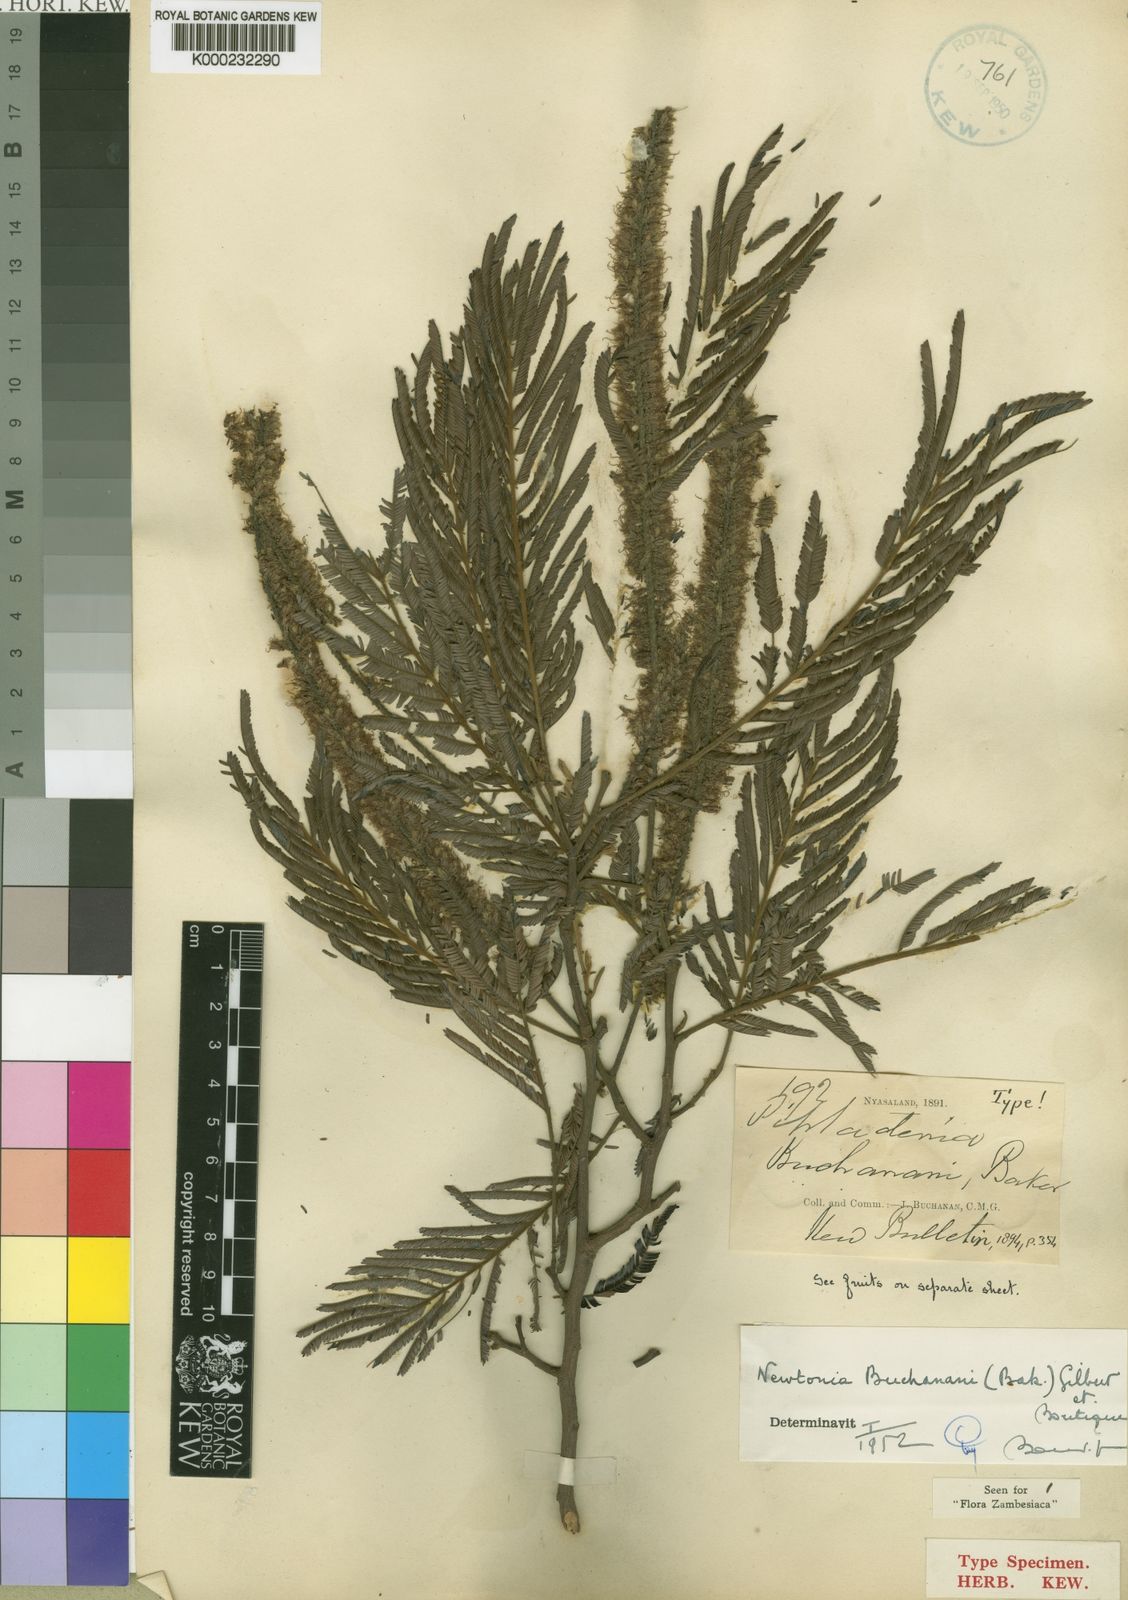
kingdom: Plantae
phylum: Tracheophyta
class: Magnoliopsida
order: Fabales
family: Fabaceae
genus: Newtonia
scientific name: Newtonia buchananii
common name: Forest newtonia
